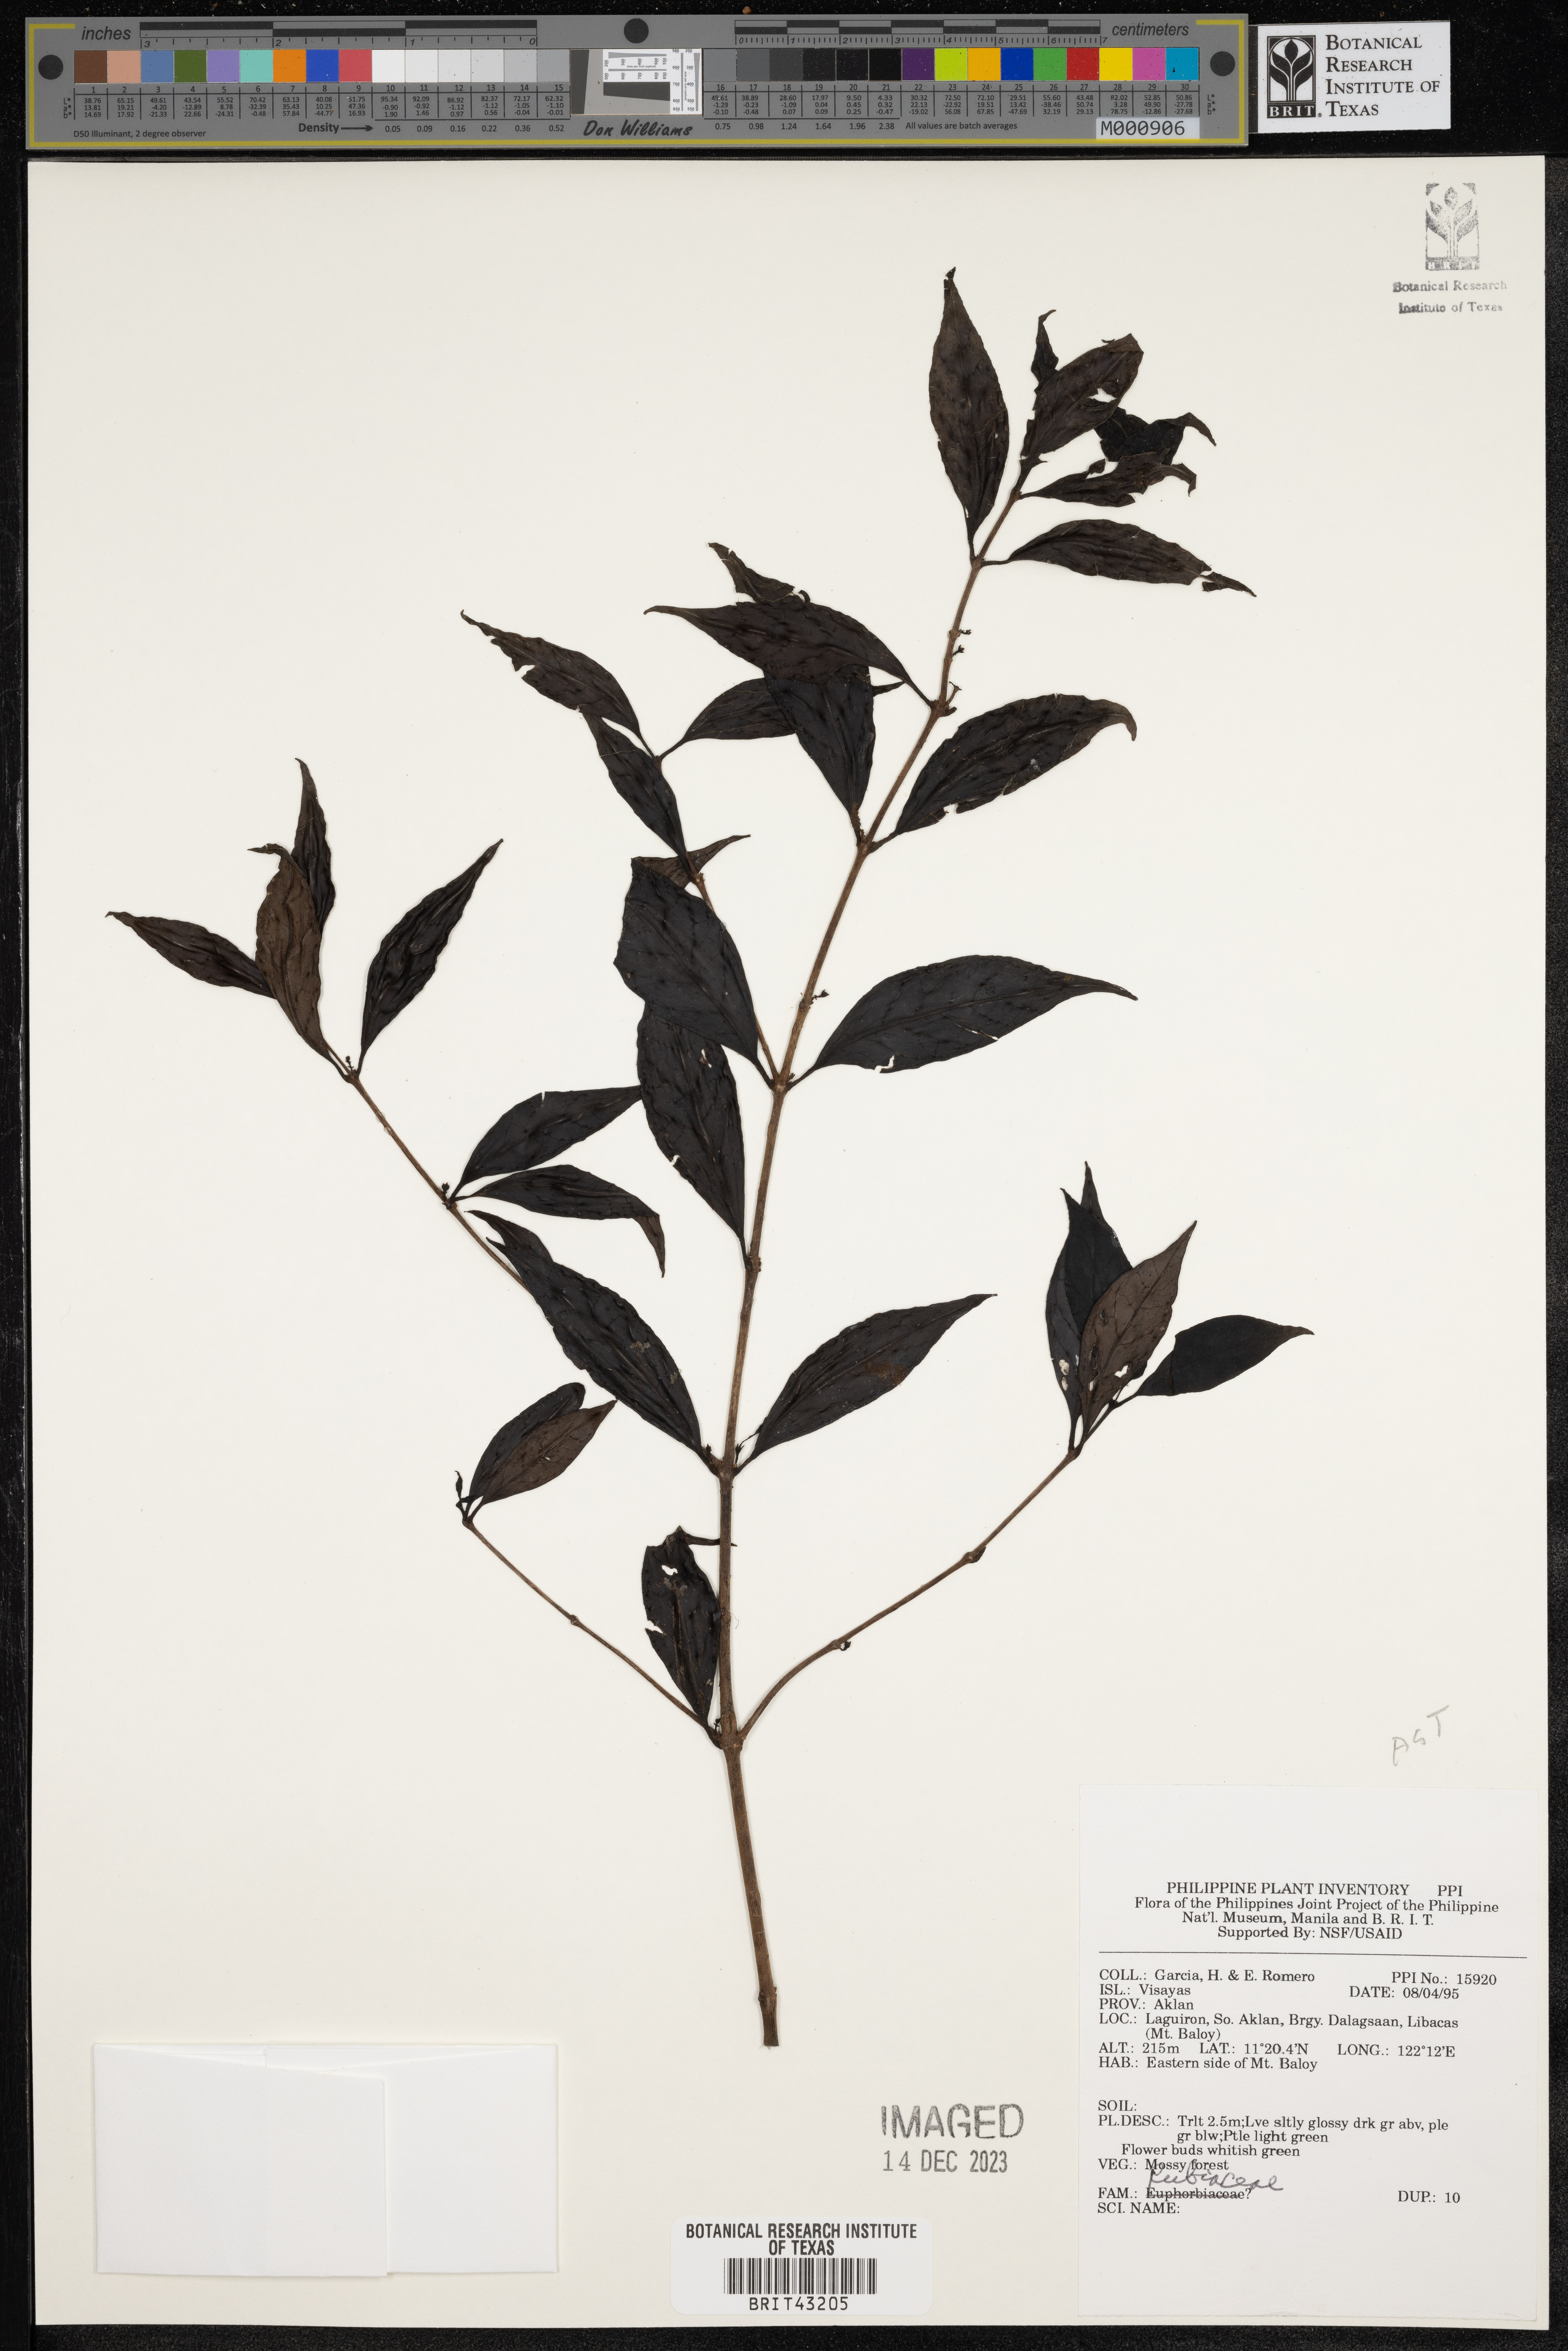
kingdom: Plantae
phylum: Tracheophyta
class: Magnoliopsida
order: Gentianales
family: Rubiaceae
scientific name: Rubiaceae
